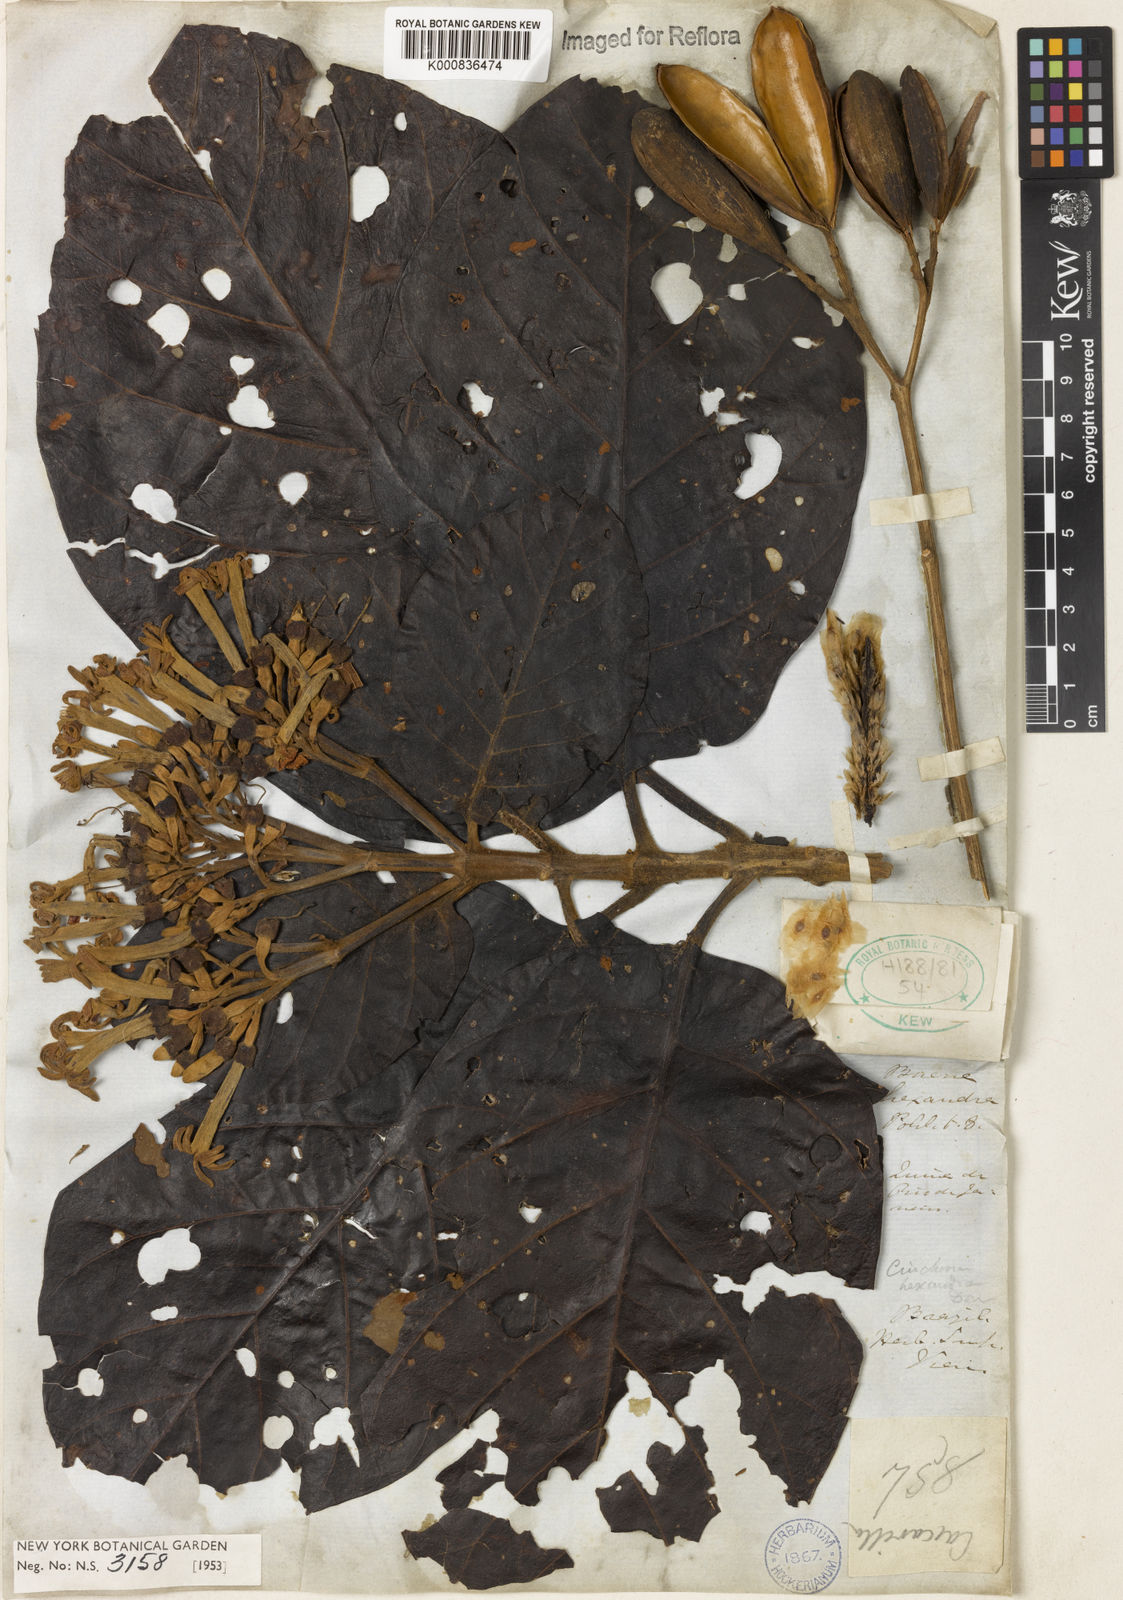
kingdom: Plantae
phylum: Tracheophyta
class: Magnoliopsida
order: Gentianales
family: Rubiaceae
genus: Ladenbergia
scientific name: Ladenbergia hexandra
